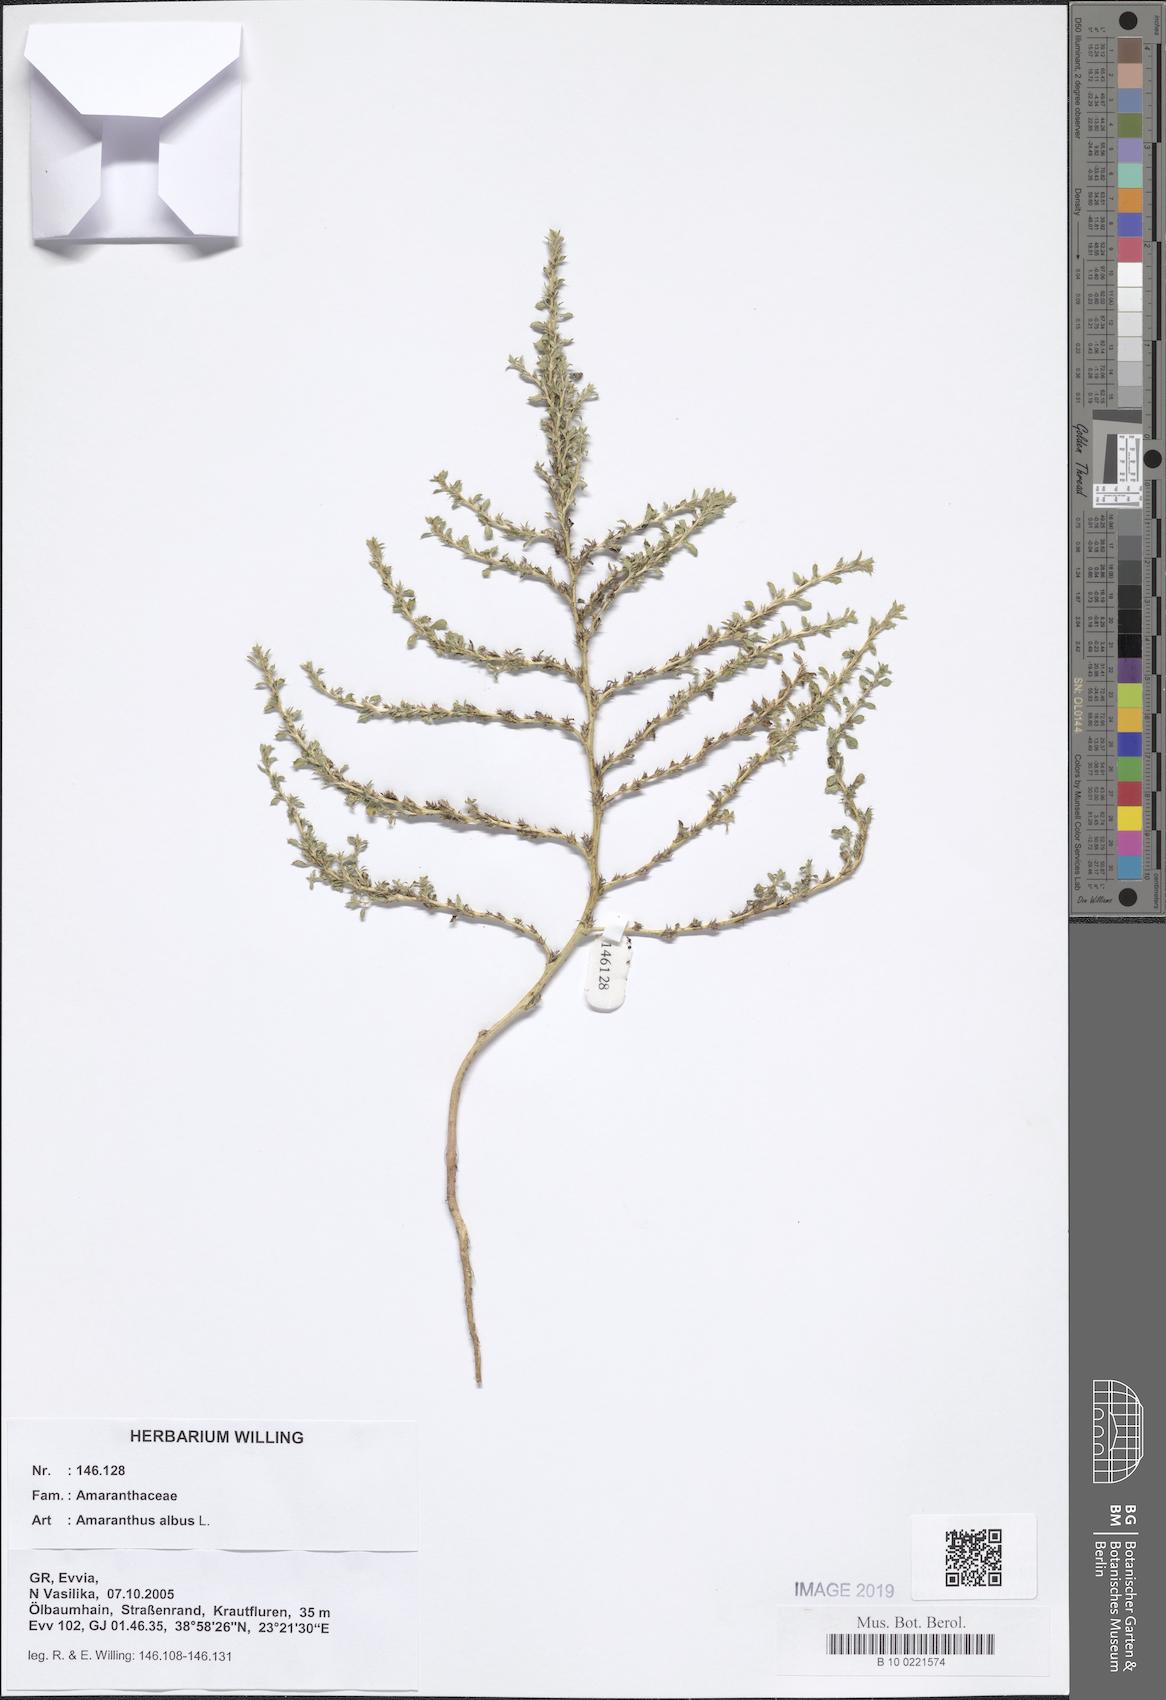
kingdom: Plantae
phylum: Tracheophyta
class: Magnoliopsida
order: Caryophyllales
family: Amaranthaceae
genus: Amaranthus
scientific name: Amaranthus albus
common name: White pigweed
